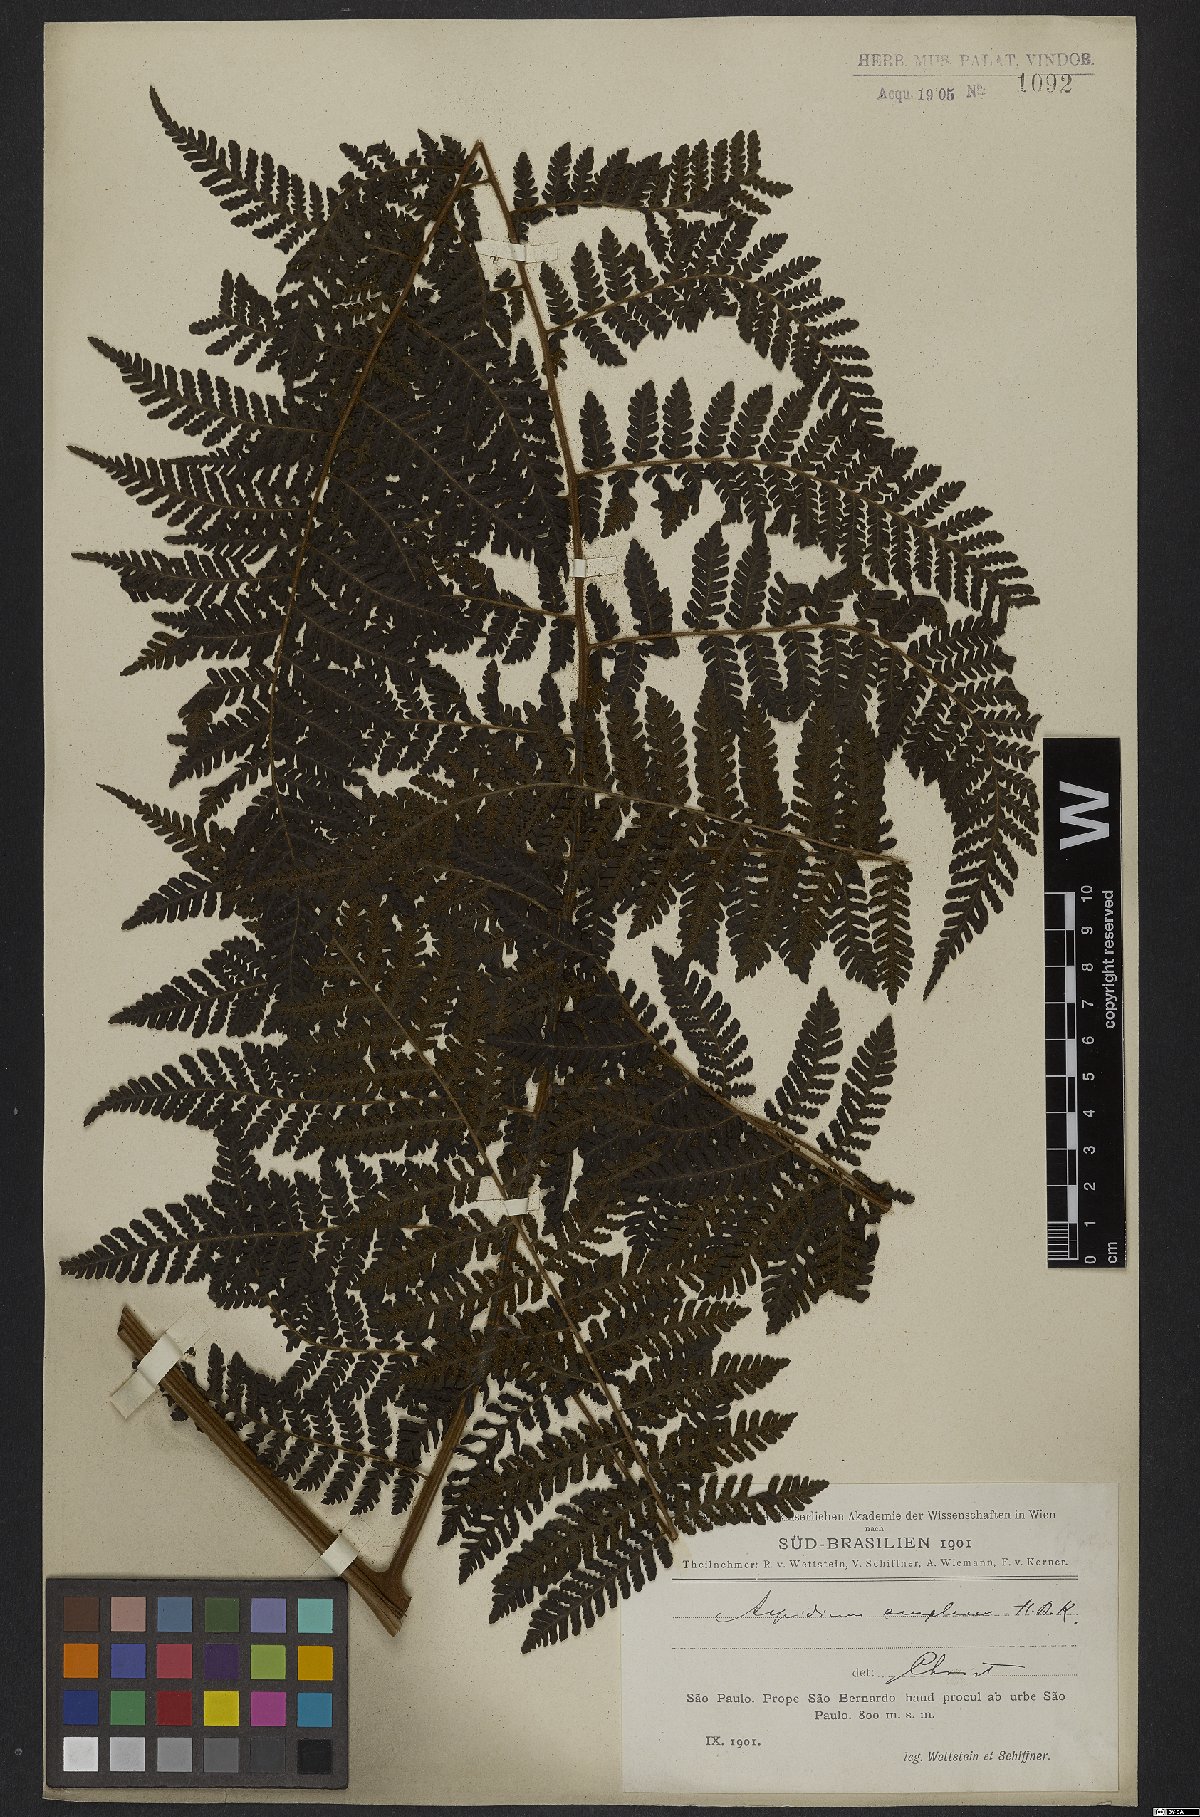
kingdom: Plantae
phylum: Tracheophyta
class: Polypodiopsida
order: Polypodiales
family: Dryopteridaceae
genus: Ctenitis
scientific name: Ctenitis sloanei
